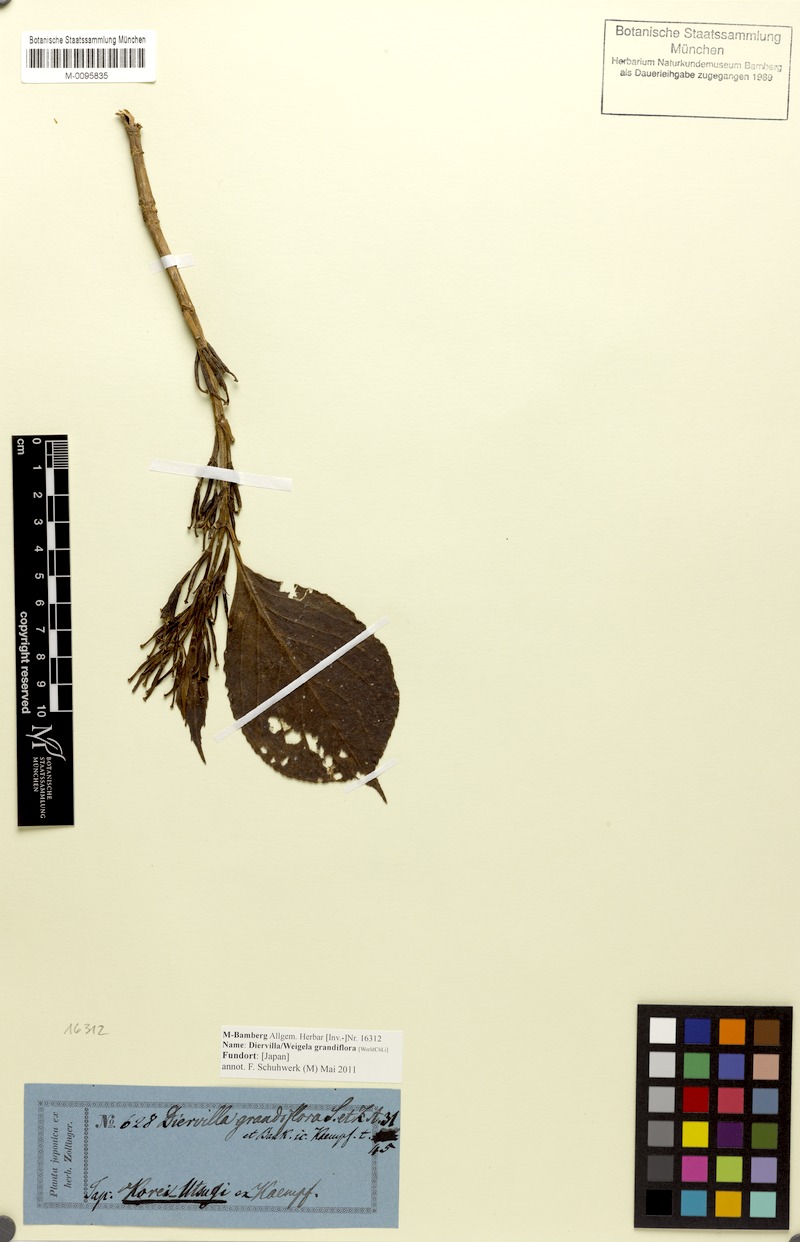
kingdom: Plantae
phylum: Tracheophyta
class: Magnoliopsida
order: Dipsacales
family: Caprifoliaceae
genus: Weigela
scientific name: Weigela coraeensis
